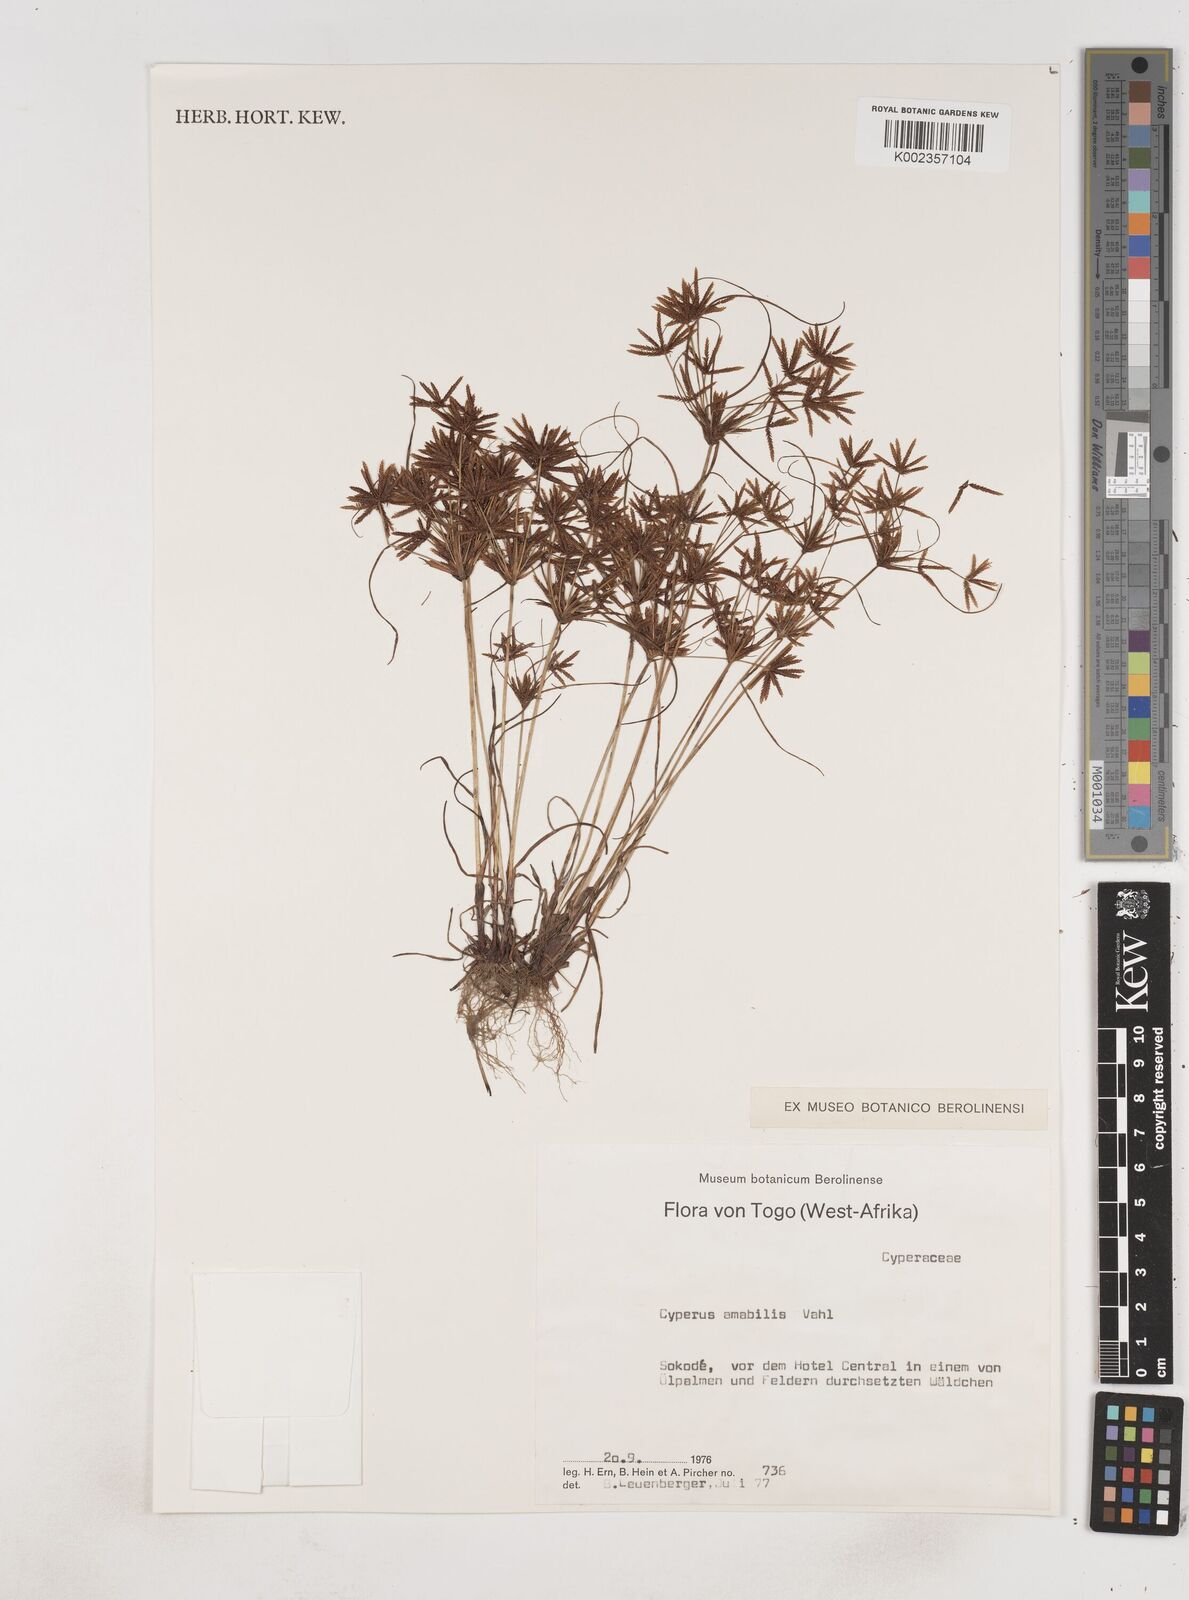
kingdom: Plantae
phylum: Tracheophyta
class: Liliopsida
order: Poales
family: Cyperaceae
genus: Cyperus
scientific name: Cyperus amabilis
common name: Foothill flat sedge
